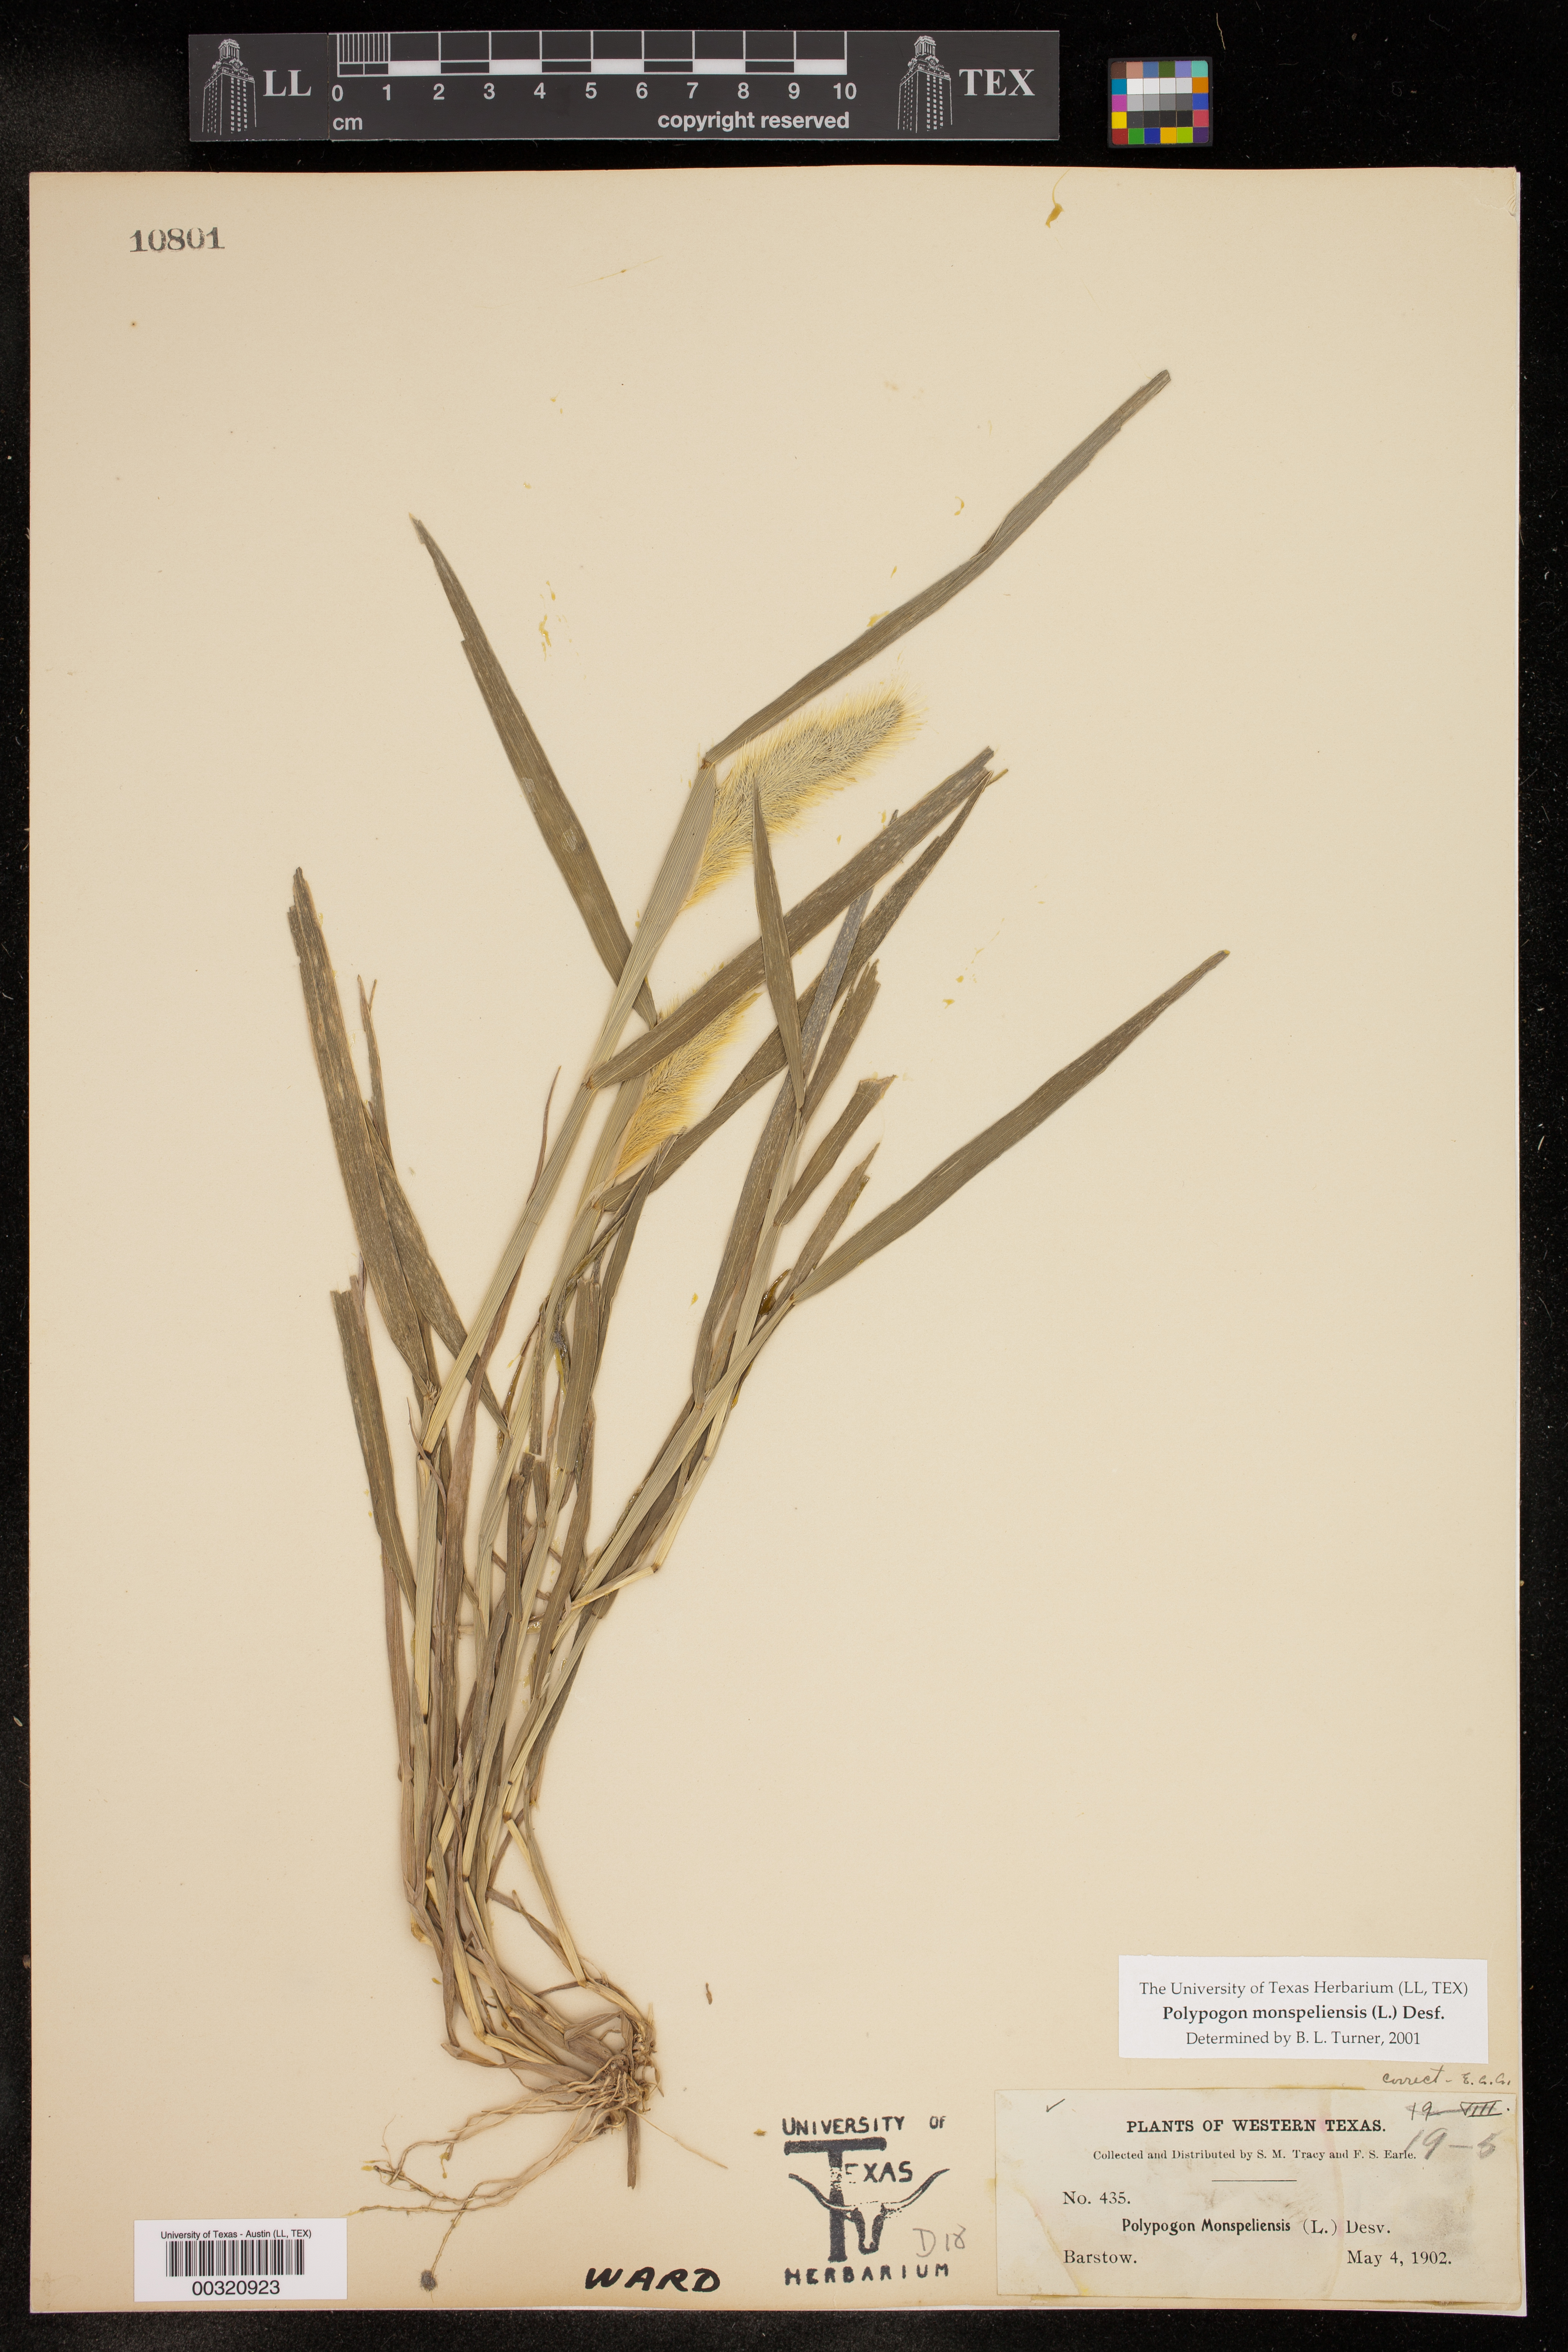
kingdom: Plantae
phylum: Tracheophyta
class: Liliopsida
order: Poales
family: Poaceae
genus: Polypogon
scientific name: Polypogon monspeliensis
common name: Annual rabbitsfoot grass
